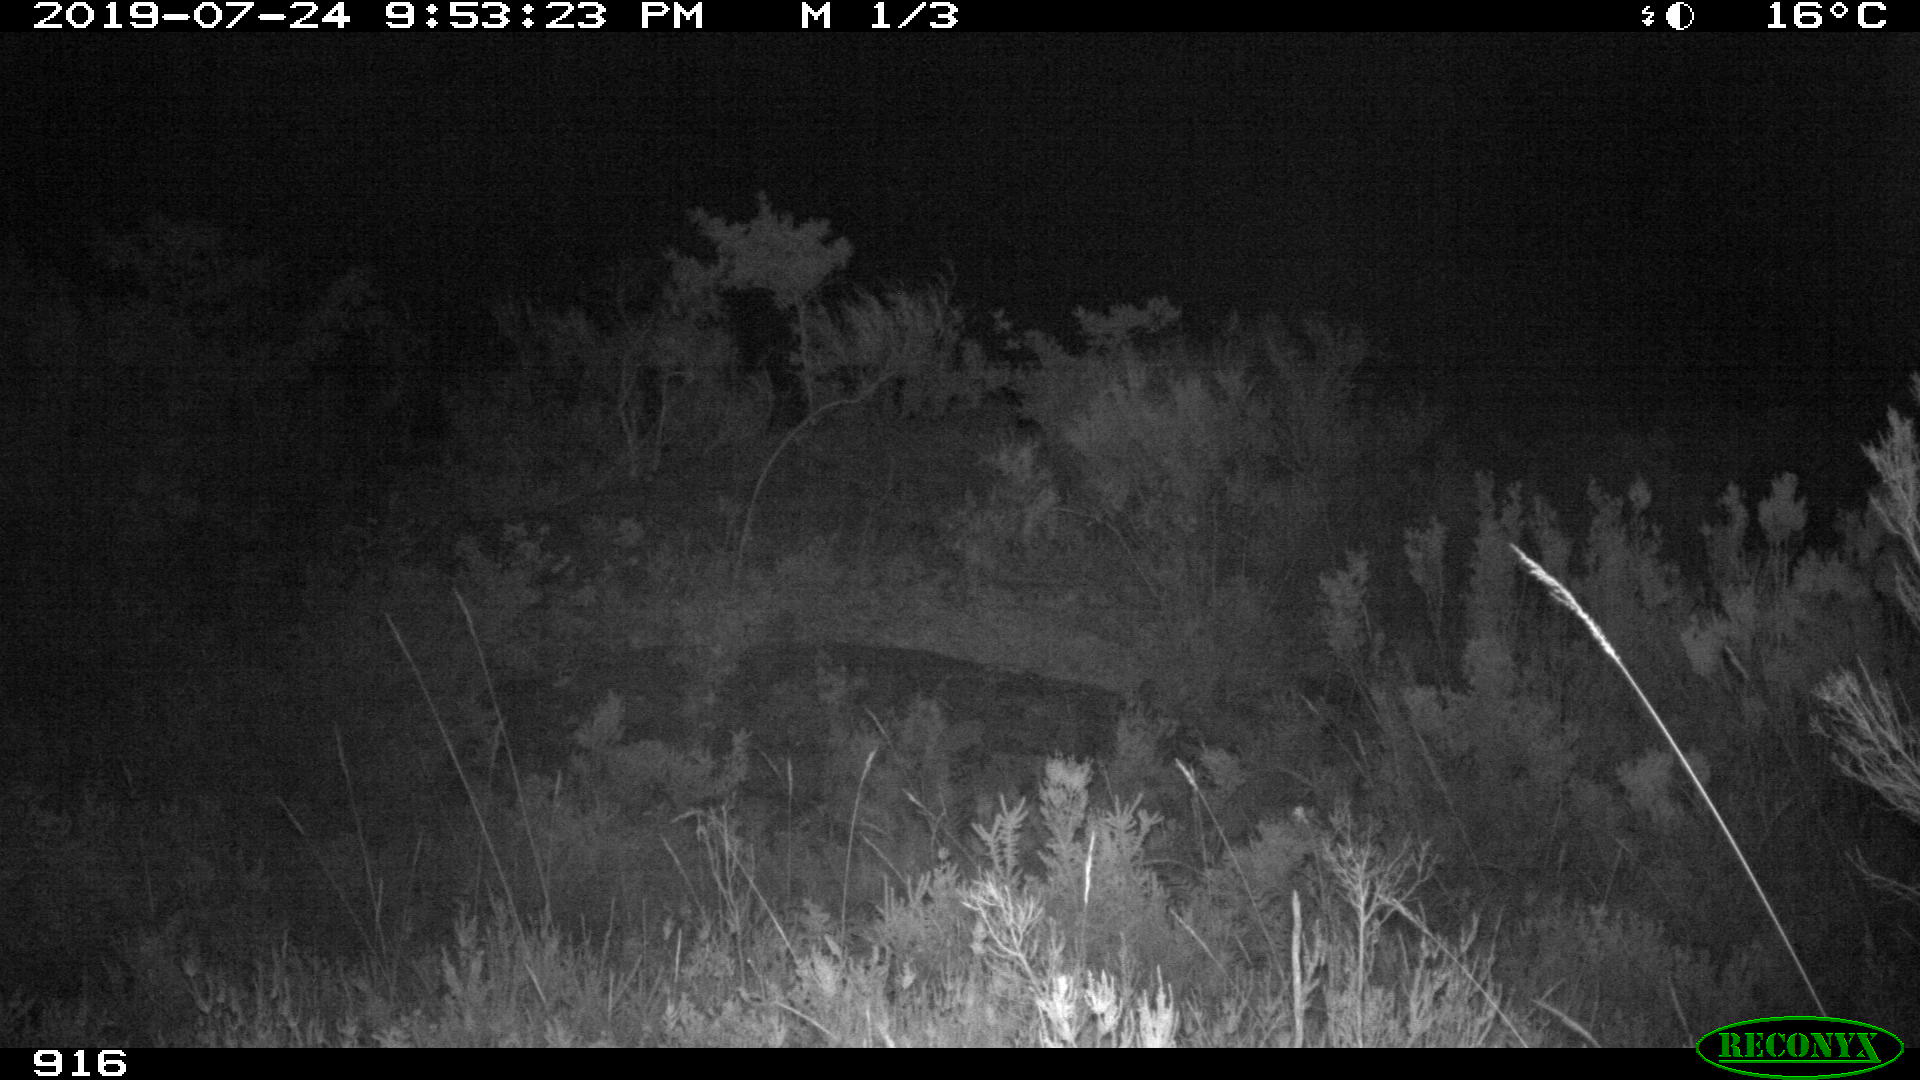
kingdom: Animalia
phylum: Chordata
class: Mammalia
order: Artiodactyla
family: Cervidae
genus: Capreolus
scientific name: Capreolus capreolus
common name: Western roe deer
